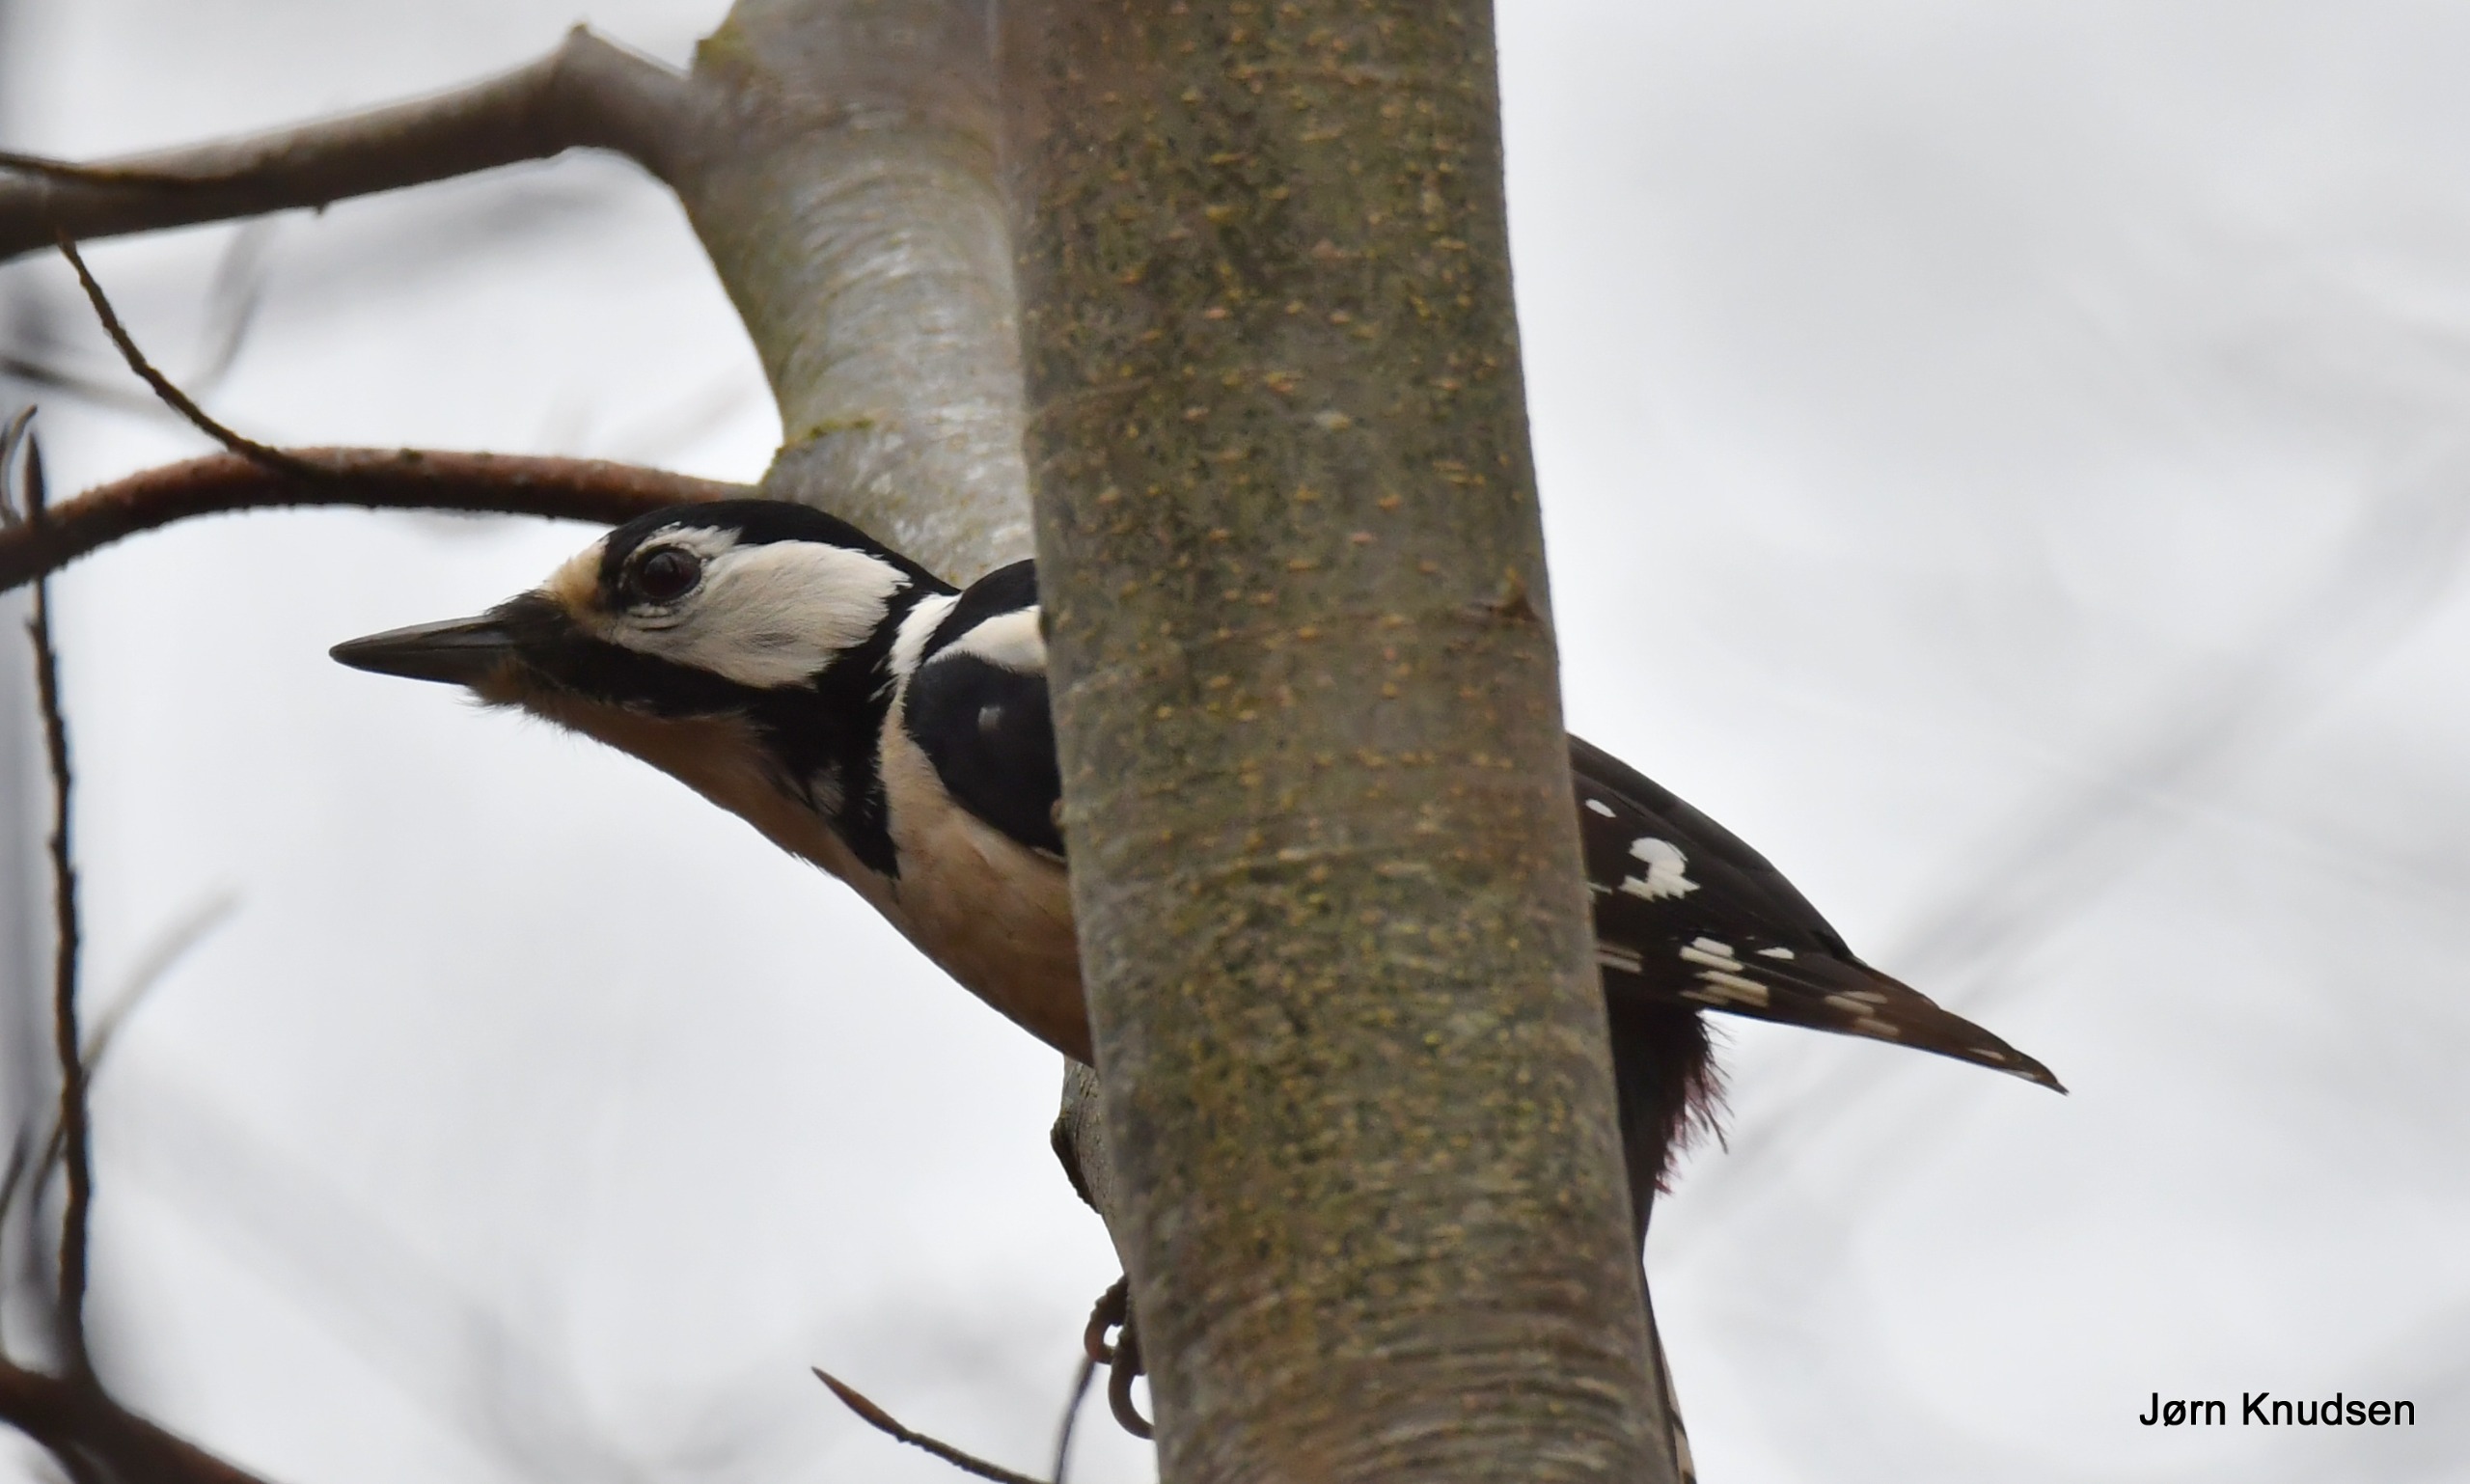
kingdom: Animalia
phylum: Chordata
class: Aves
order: Piciformes
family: Picidae
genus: Dendrocopos
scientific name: Dendrocopos major
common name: Stor flagspætte
